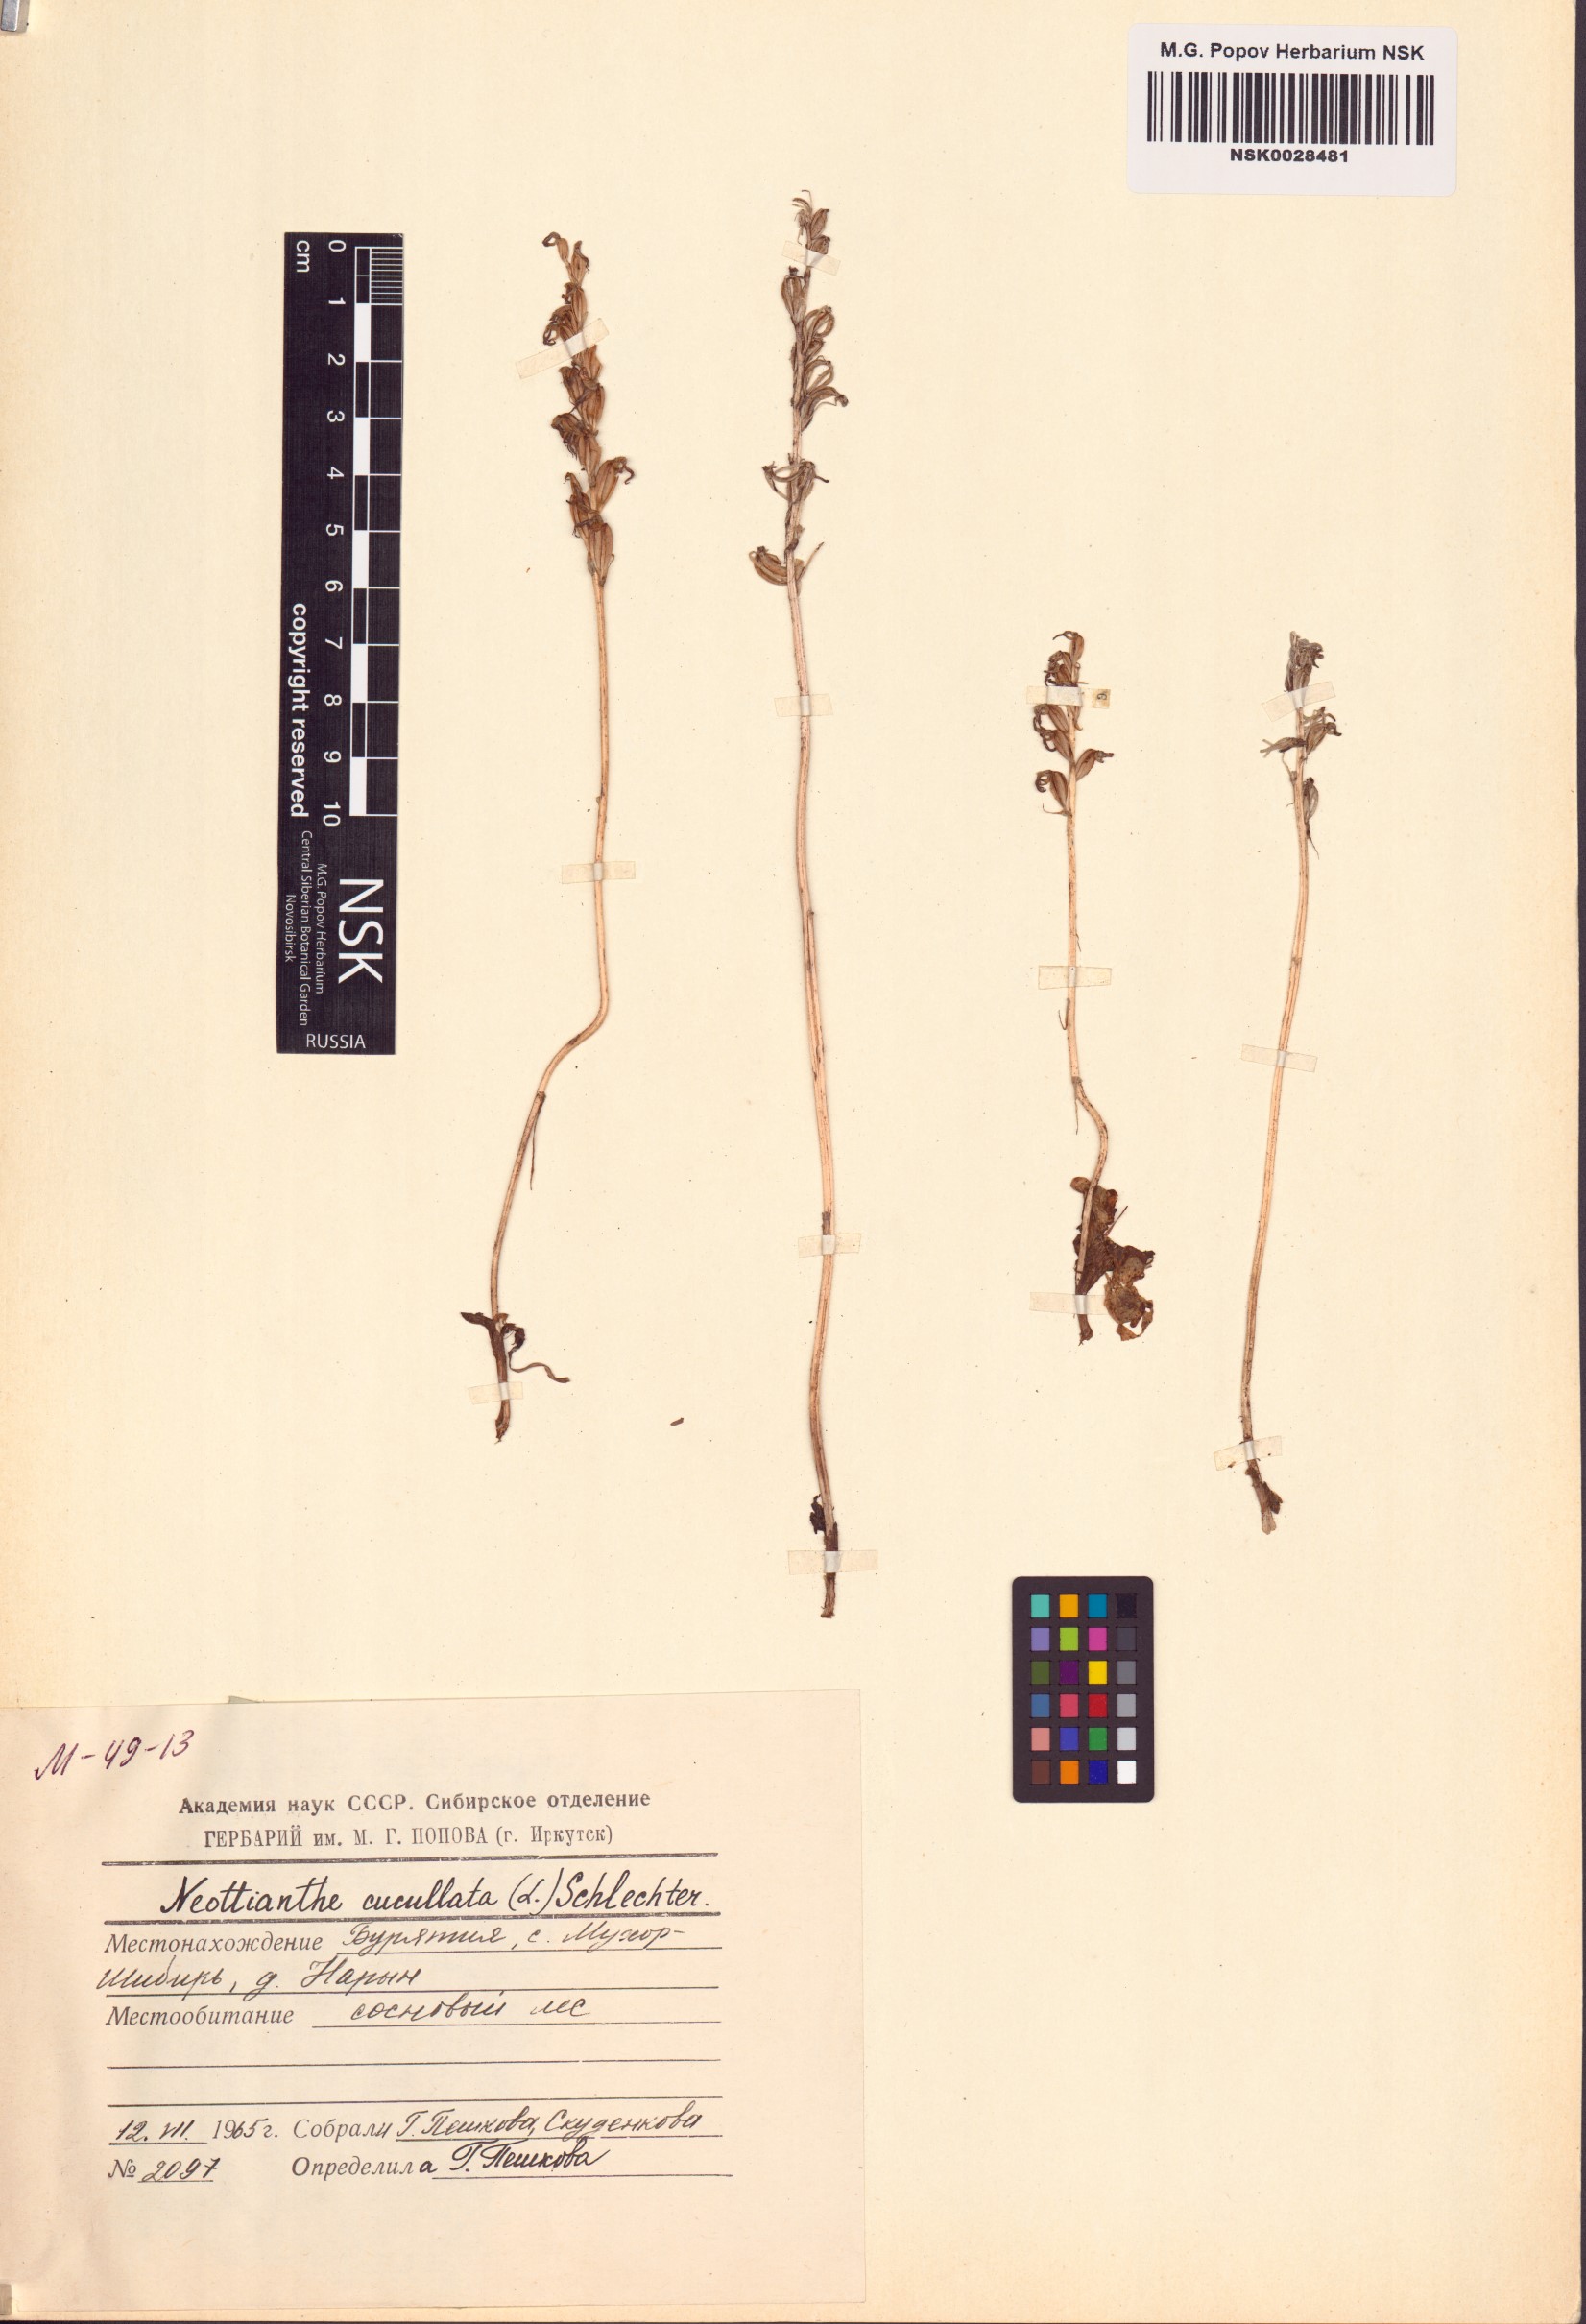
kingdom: Plantae
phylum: Tracheophyta
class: Liliopsida
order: Asparagales
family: Orchidaceae
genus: Hemipilia
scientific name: Hemipilia cucullata
